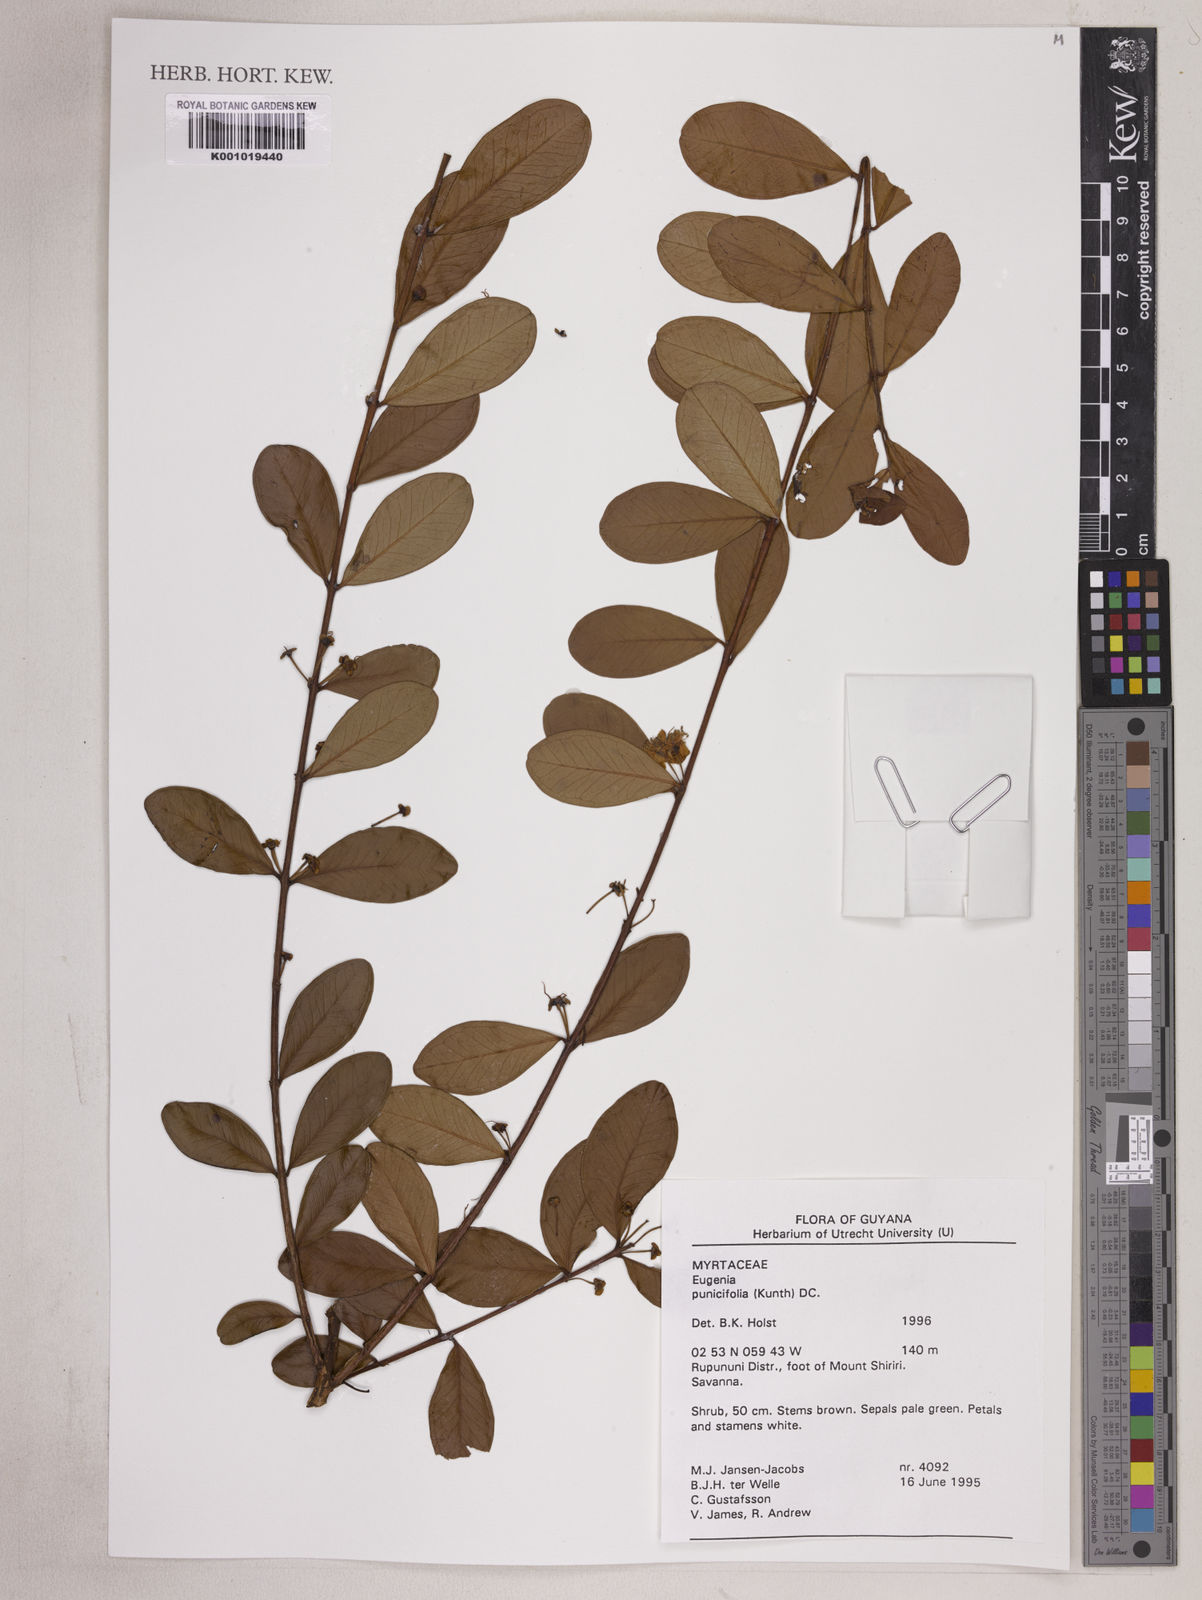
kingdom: Plantae
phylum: Tracheophyta
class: Magnoliopsida
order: Myrtales
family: Myrtaceae
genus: Eugenia
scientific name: Eugenia punicifolia
